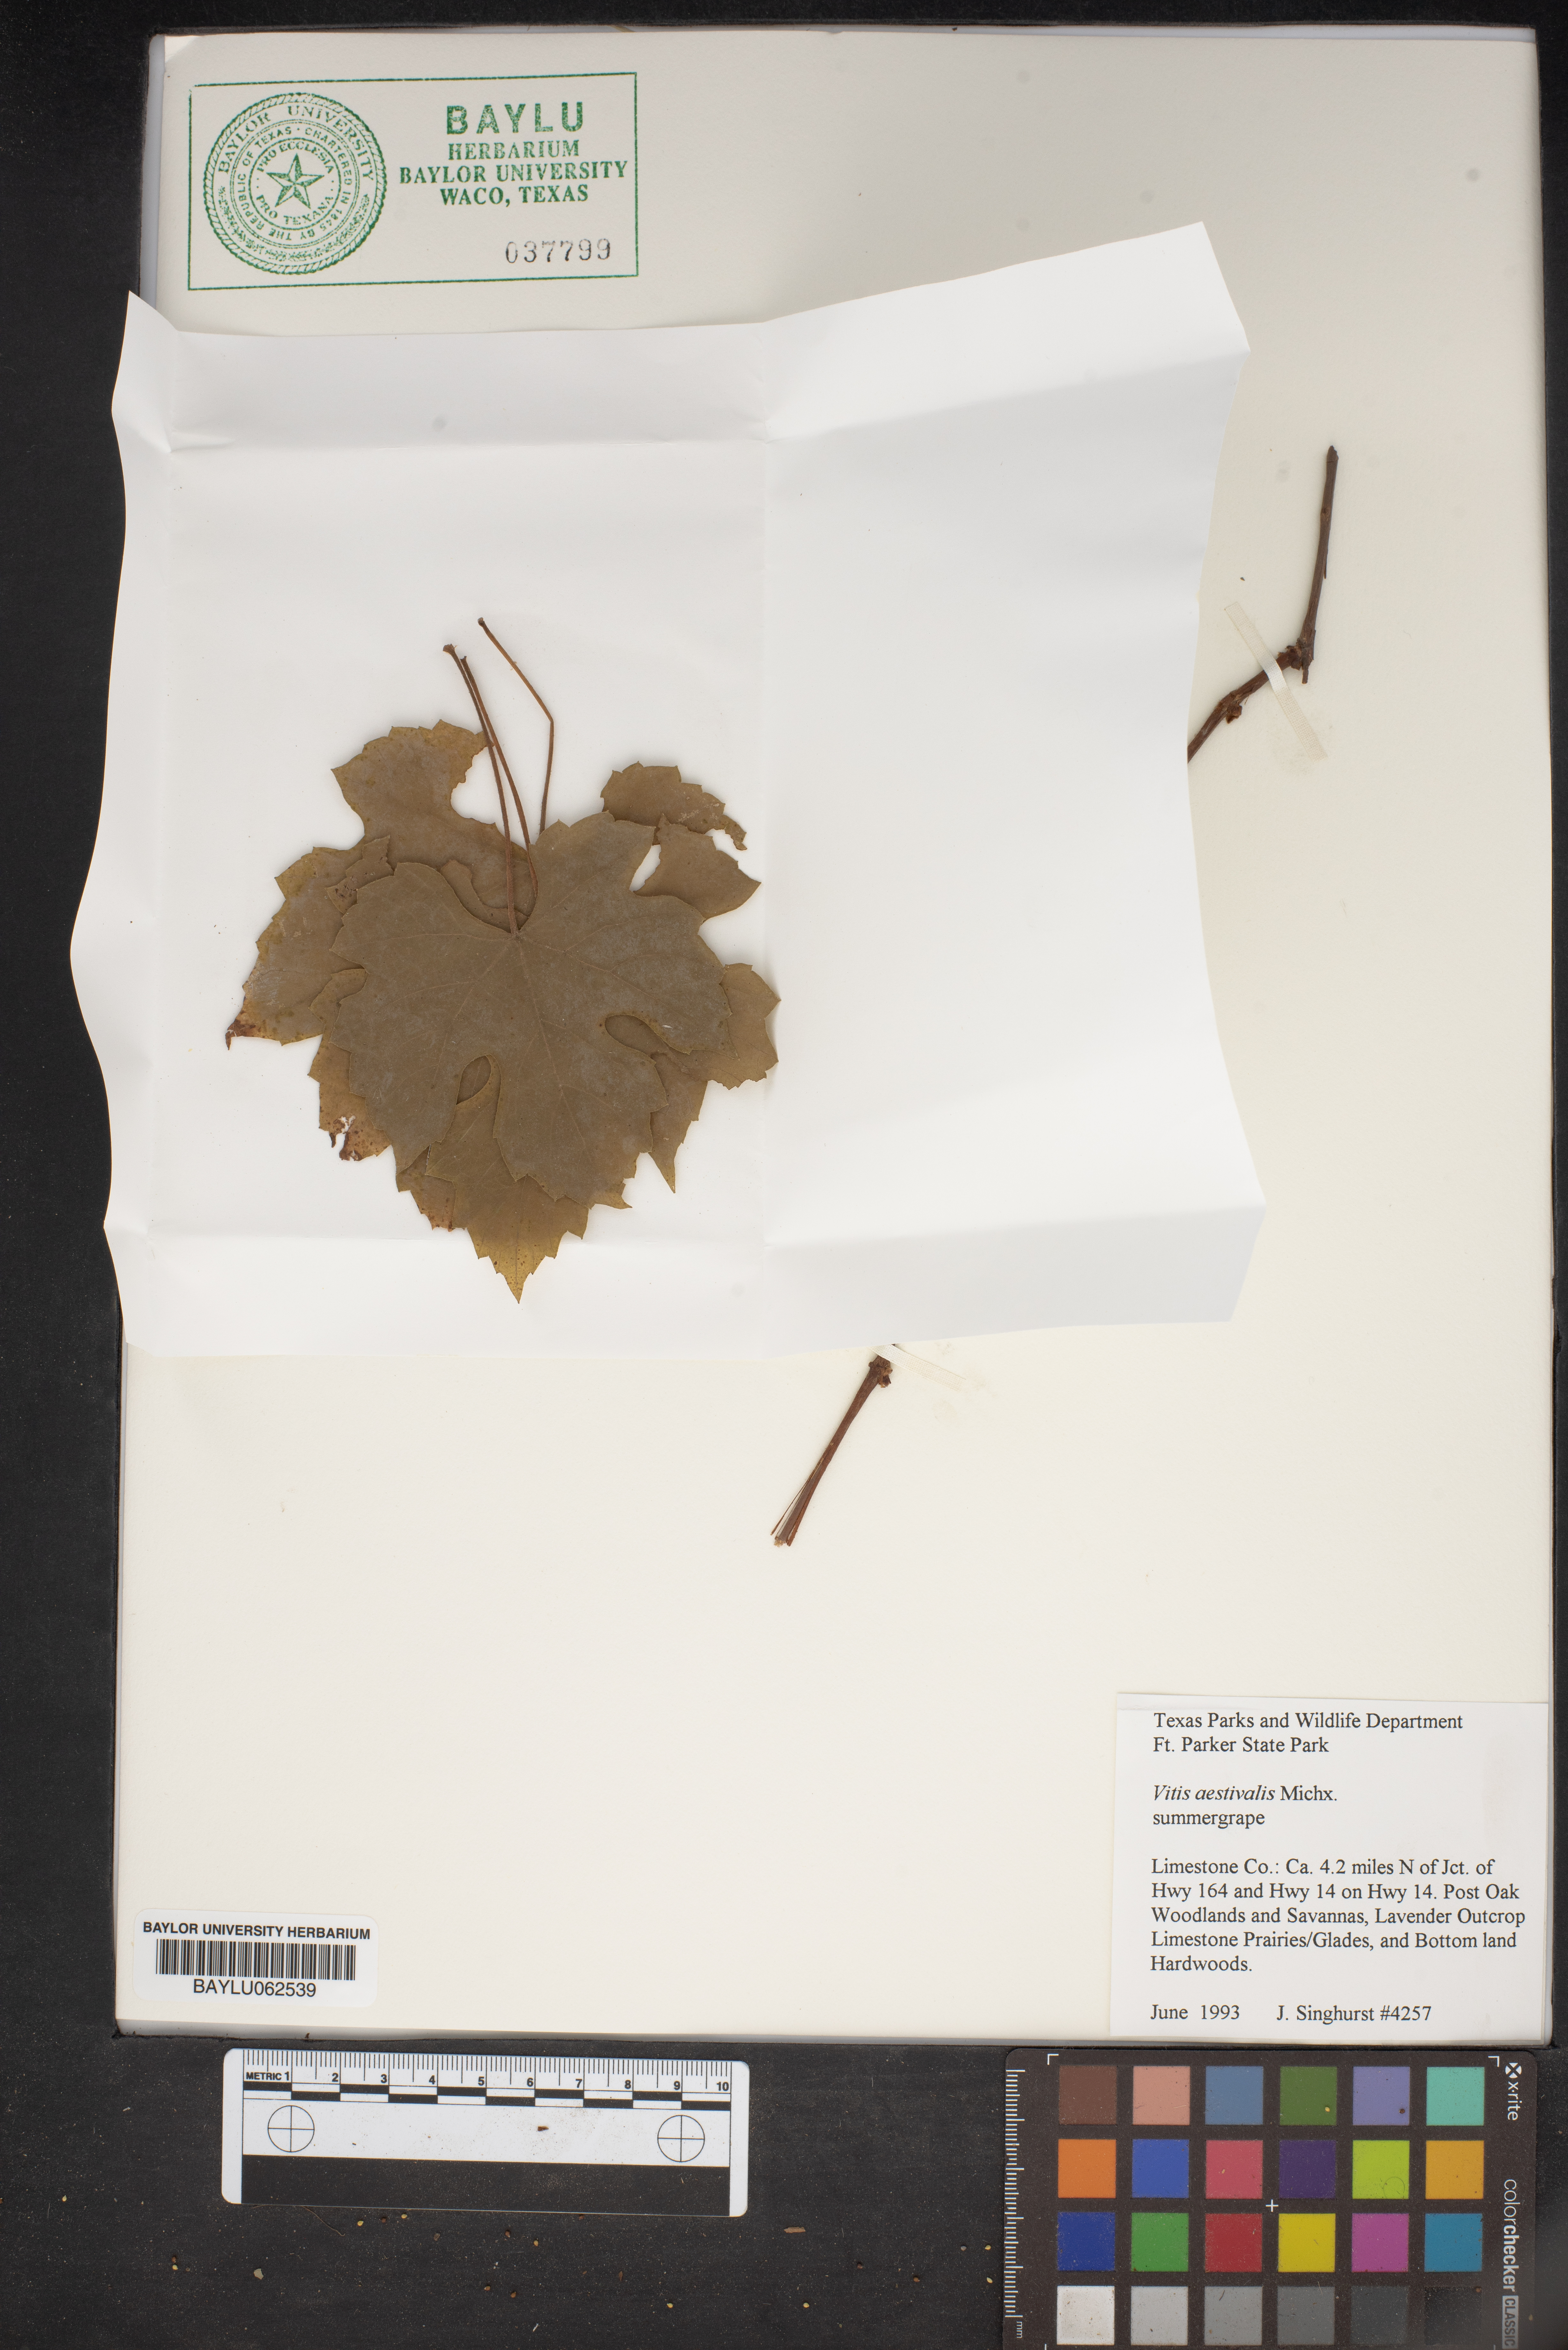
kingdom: Plantae
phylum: Tracheophyta
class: Magnoliopsida
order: Vitales
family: Vitaceae
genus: Vitis
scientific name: Vitis aestivalis
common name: Pigeon grape
